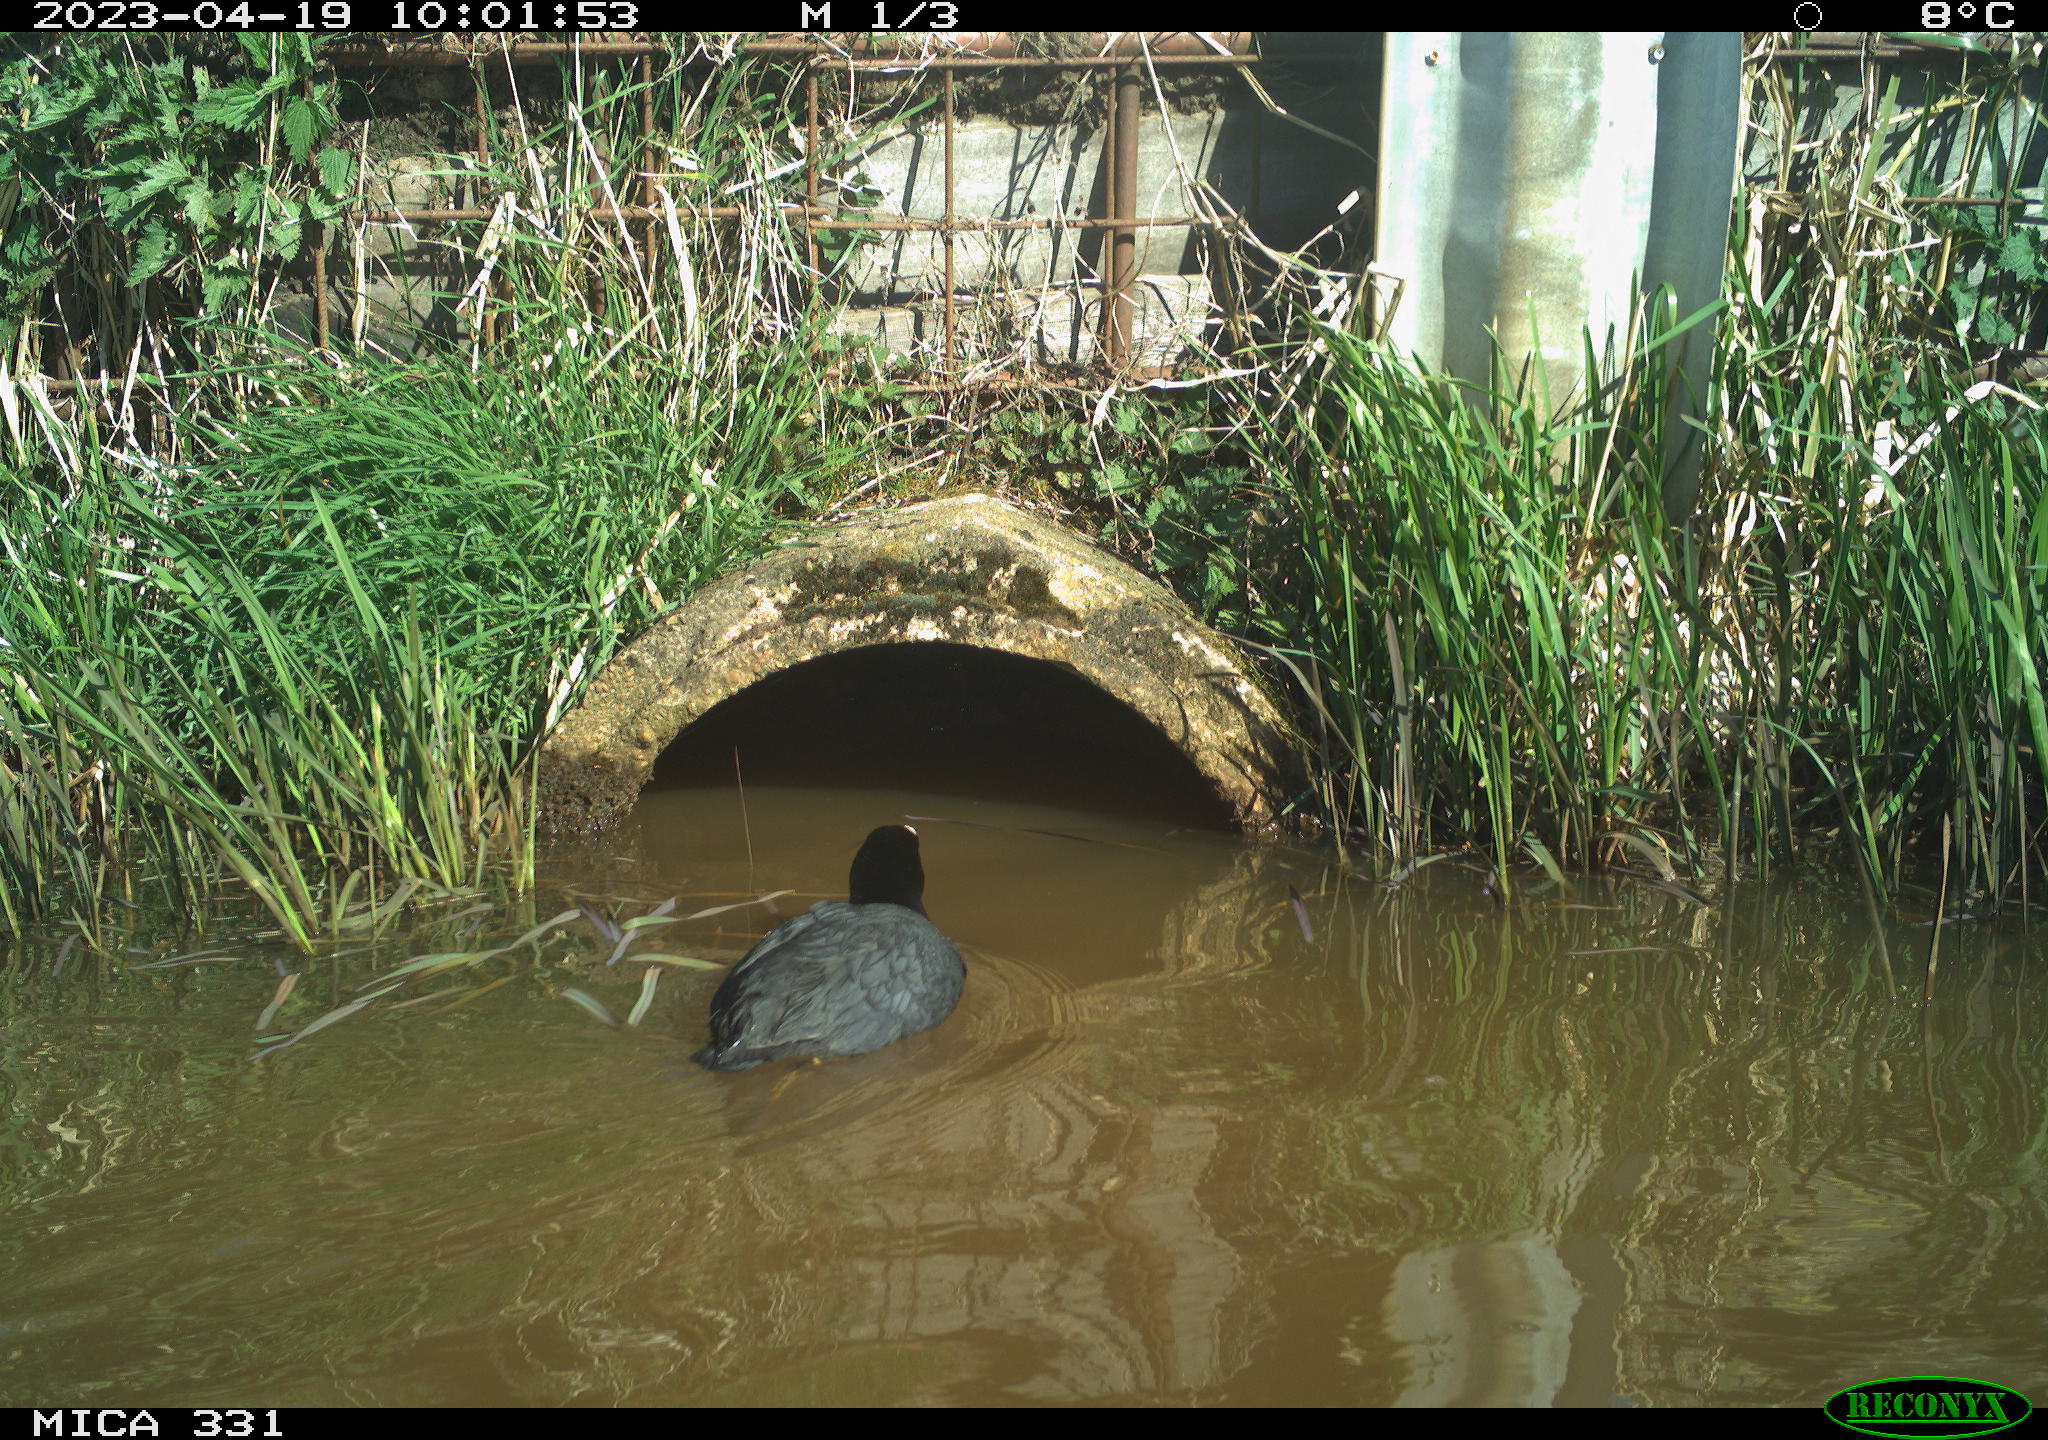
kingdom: Animalia
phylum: Chordata
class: Aves
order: Gruiformes
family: Rallidae
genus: Gallinula
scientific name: Gallinula chloropus
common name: Common moorhen
